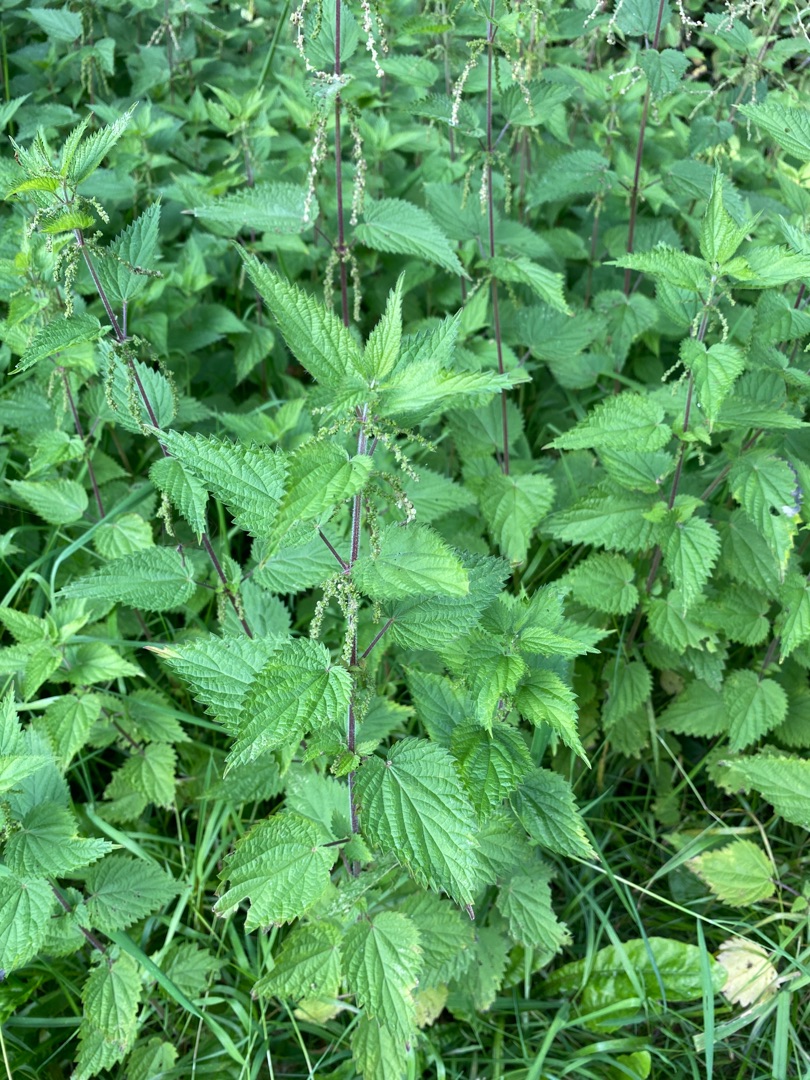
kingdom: Plantae
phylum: Tracheophyta
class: Magnoliopsida
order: Rosales
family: Urticaceae
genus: Urtica
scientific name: Urtica dioica
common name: Stor nælde
